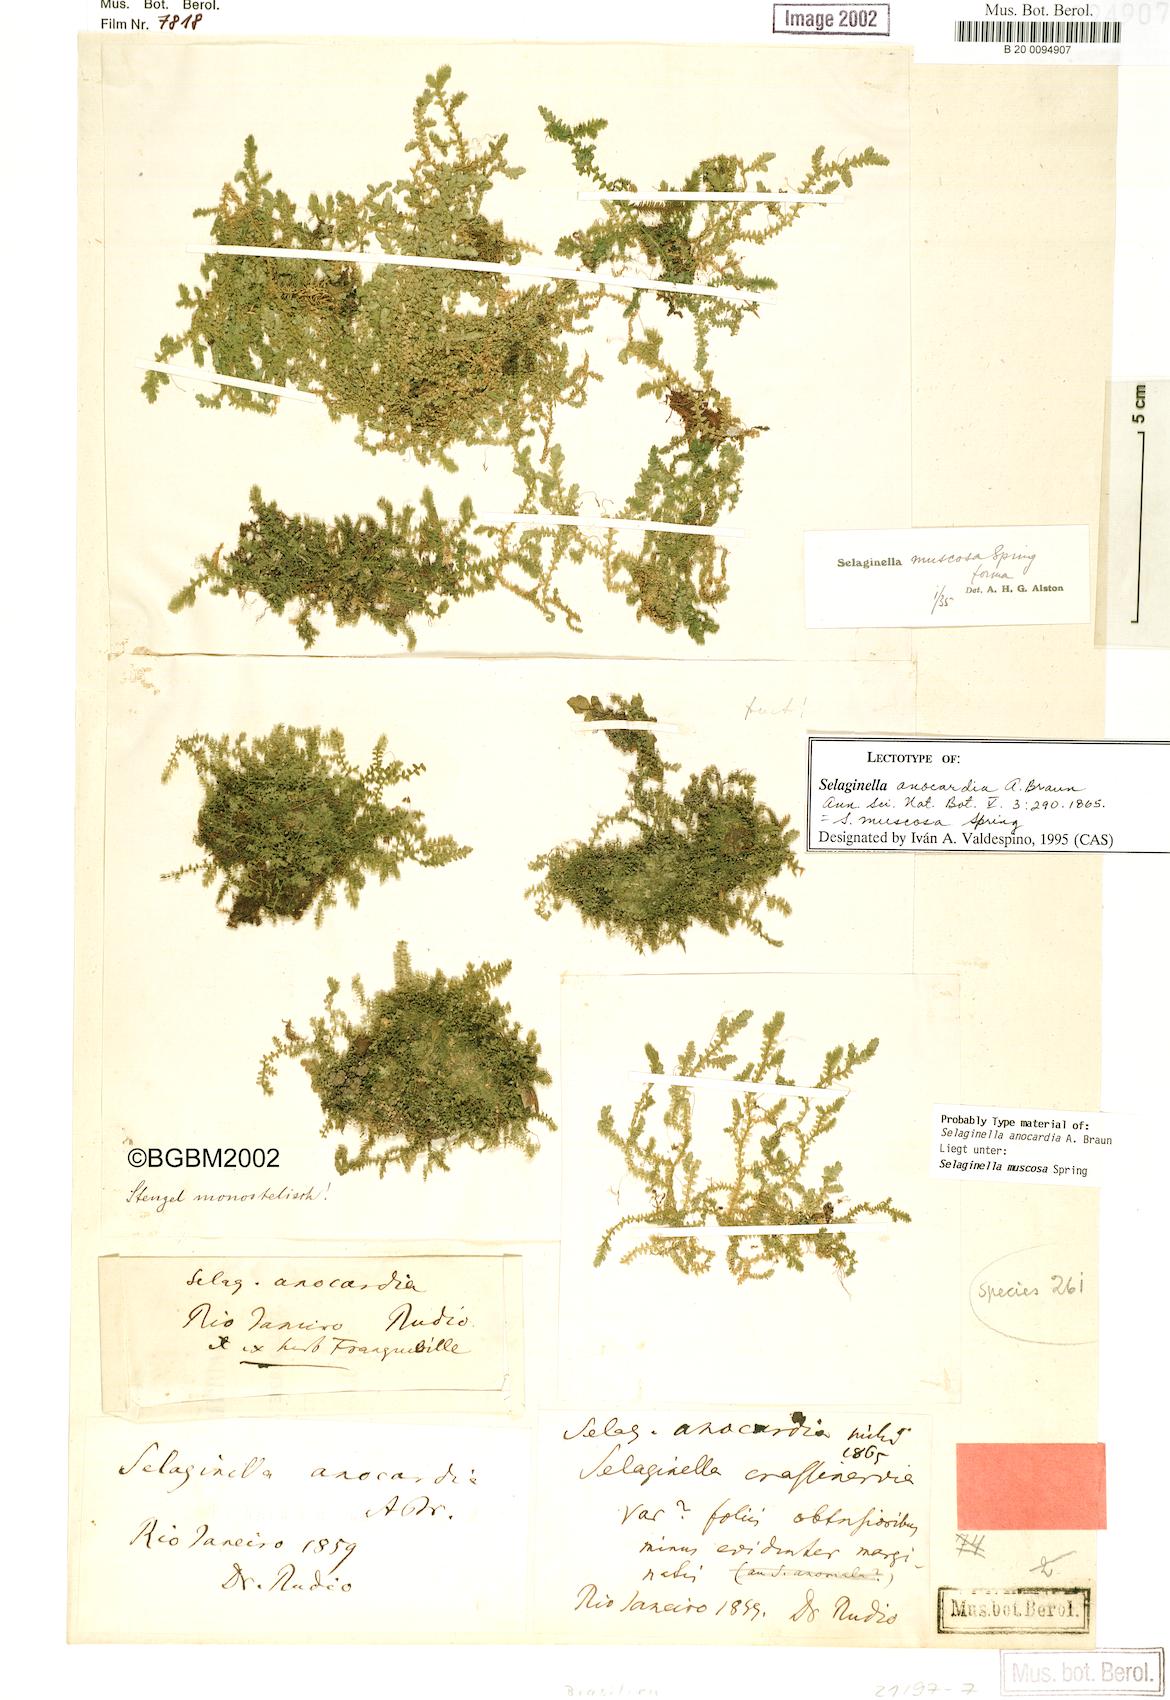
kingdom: Plantae
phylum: Tracheophyta
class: Lycopodiopsida
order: Selaginellales
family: Selaginellaceae
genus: Selaginella
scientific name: Selaginella muscosa
